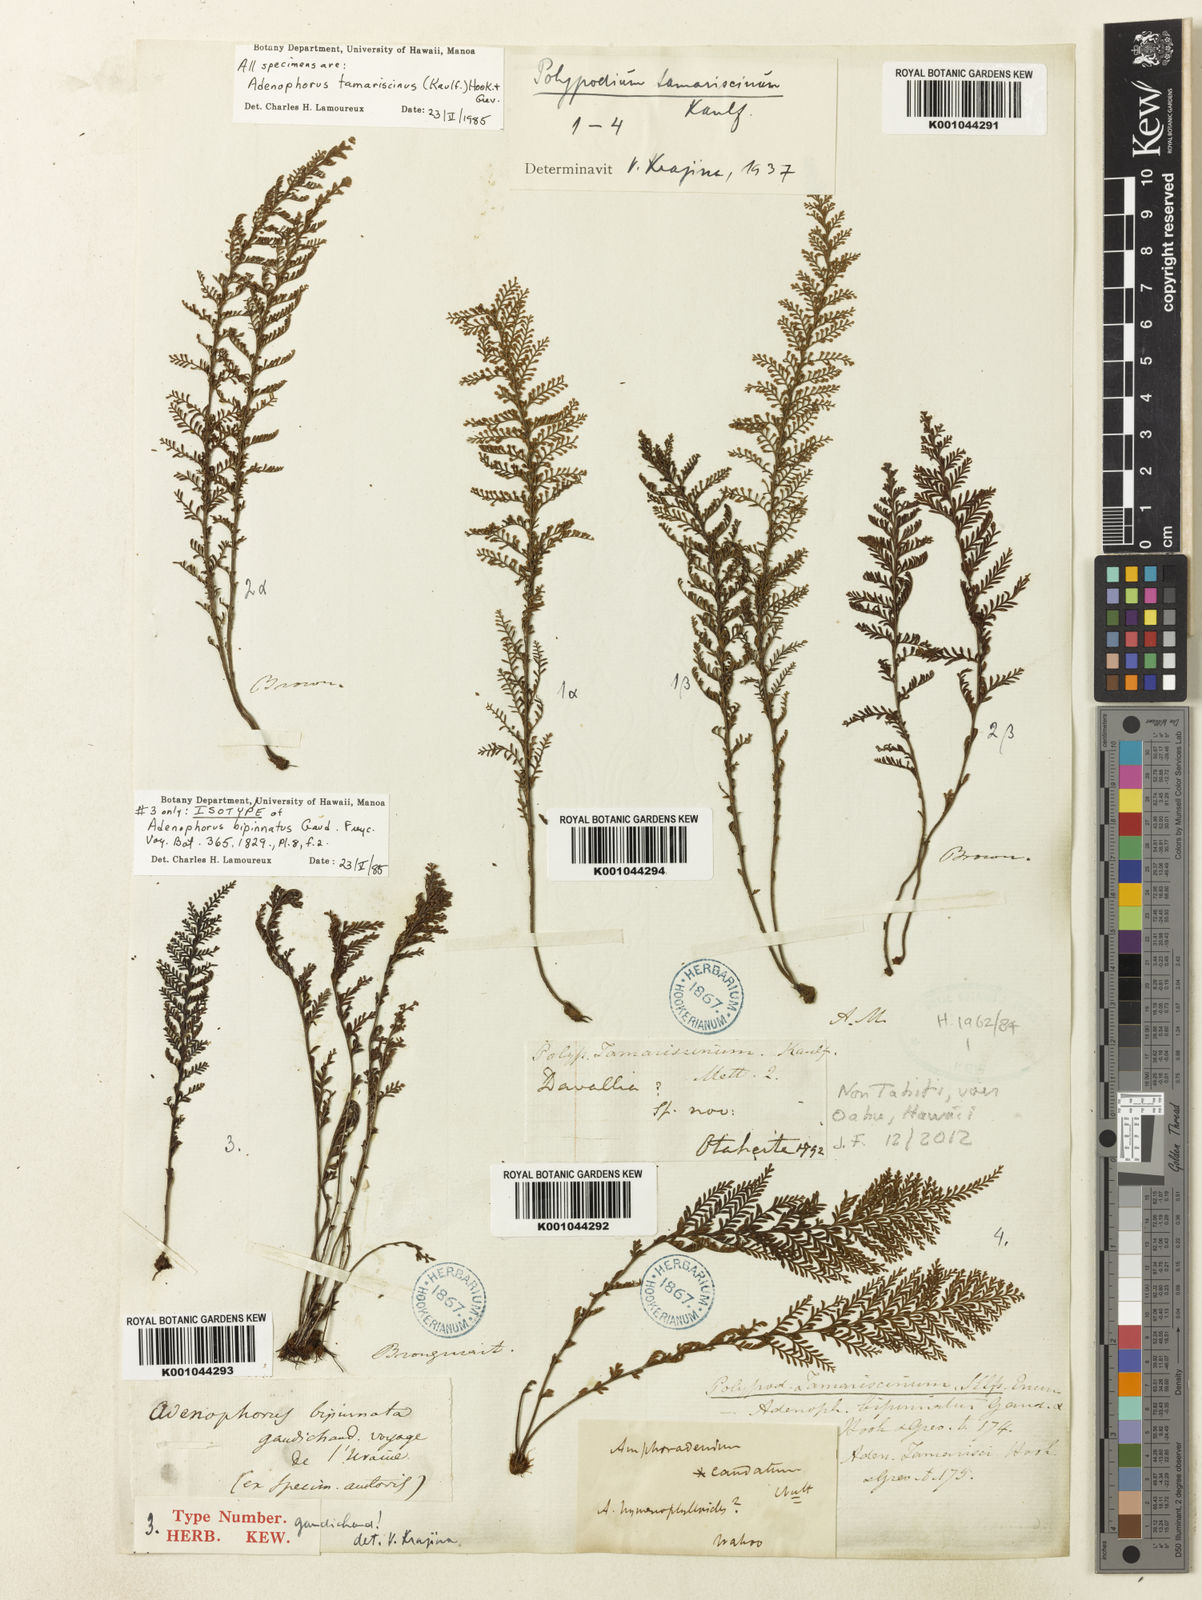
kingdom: Plantae
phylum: Tracheophyta
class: Polypodiopsida
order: Polypodiales
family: Polypodiaceae
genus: Adenophorus
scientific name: Adenophorus tamariscinus
